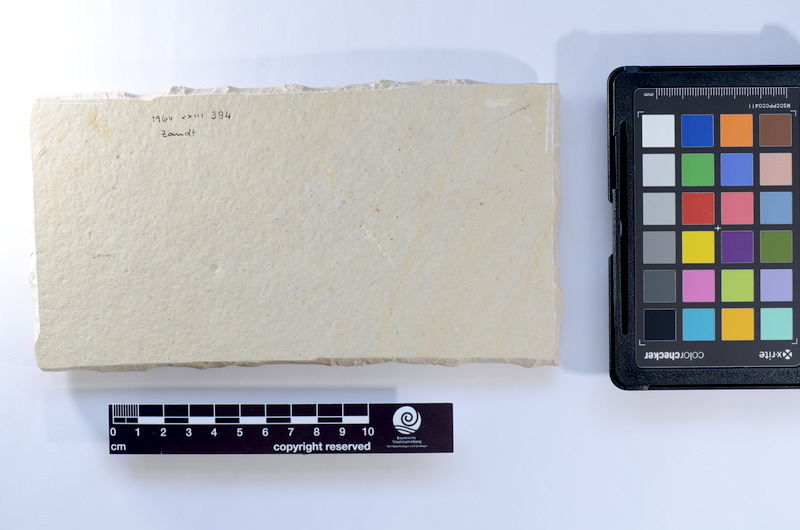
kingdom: Animalia
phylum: Chordata
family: Ascalaboidae
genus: Tharsis
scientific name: Tharsis dubius
